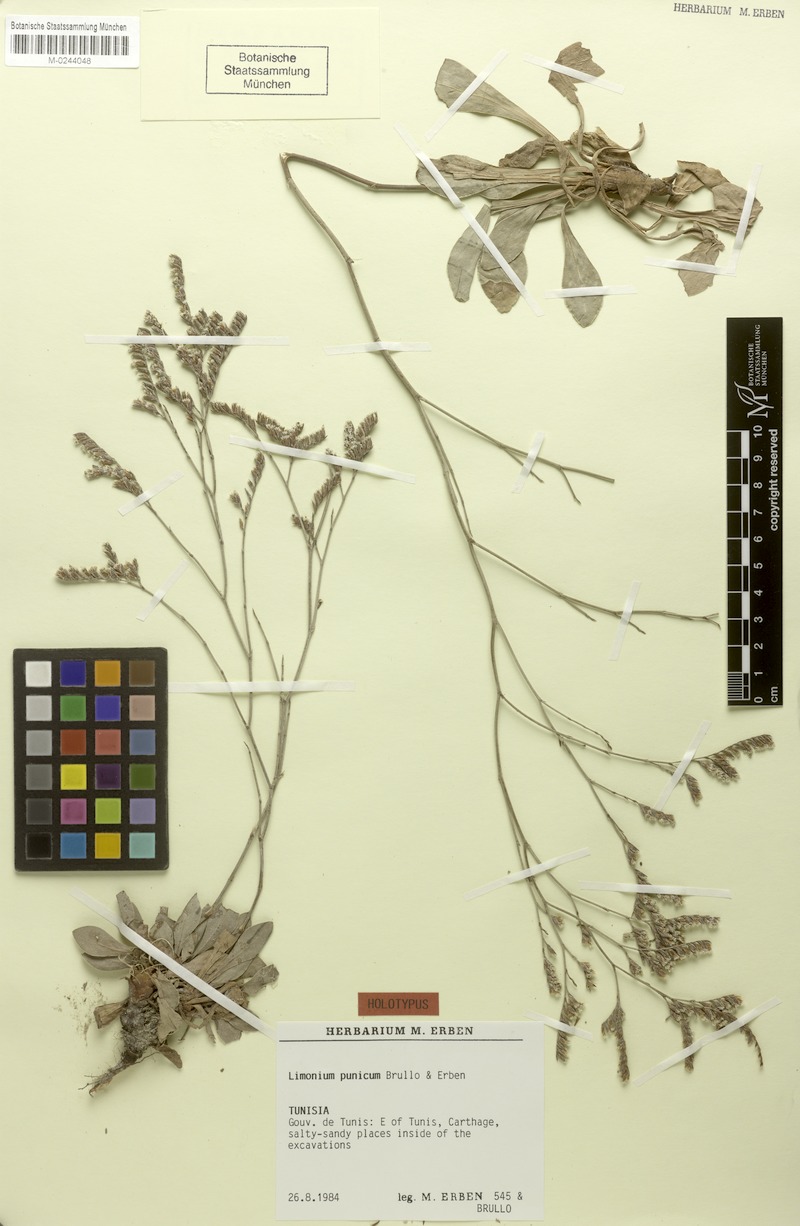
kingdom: Plantae
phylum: Tracheophyta
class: Magnoliopsida
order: Caryophyllales
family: Plumbaginaceae
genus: Limonium
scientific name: Limonium punicum
